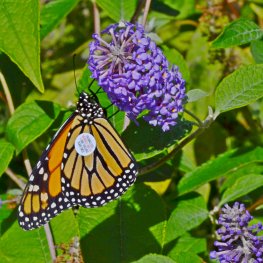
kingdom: Animalia
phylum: Arthropoda
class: Insecta
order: Lepidoptera
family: Nymphalidae
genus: Danaus
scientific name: Danaus plexippus
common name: Monarch
